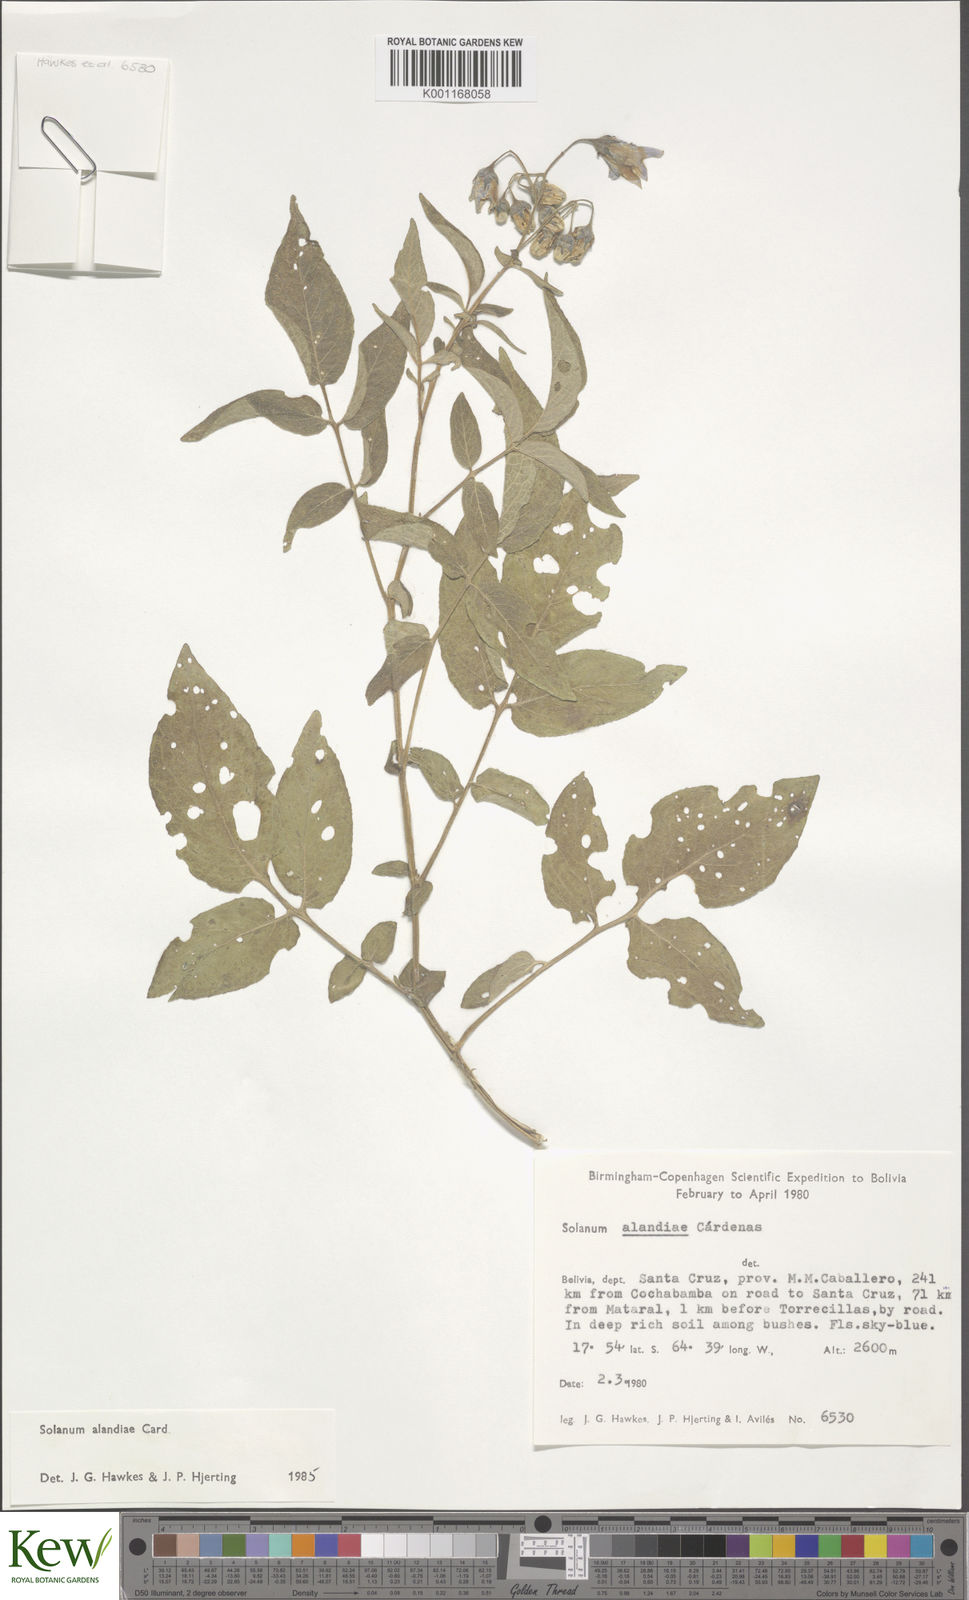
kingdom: Plantae
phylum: Tracheophyta
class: Magnoliopsida
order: Solanales
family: Solanaceae
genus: Solanum
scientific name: Solanum
